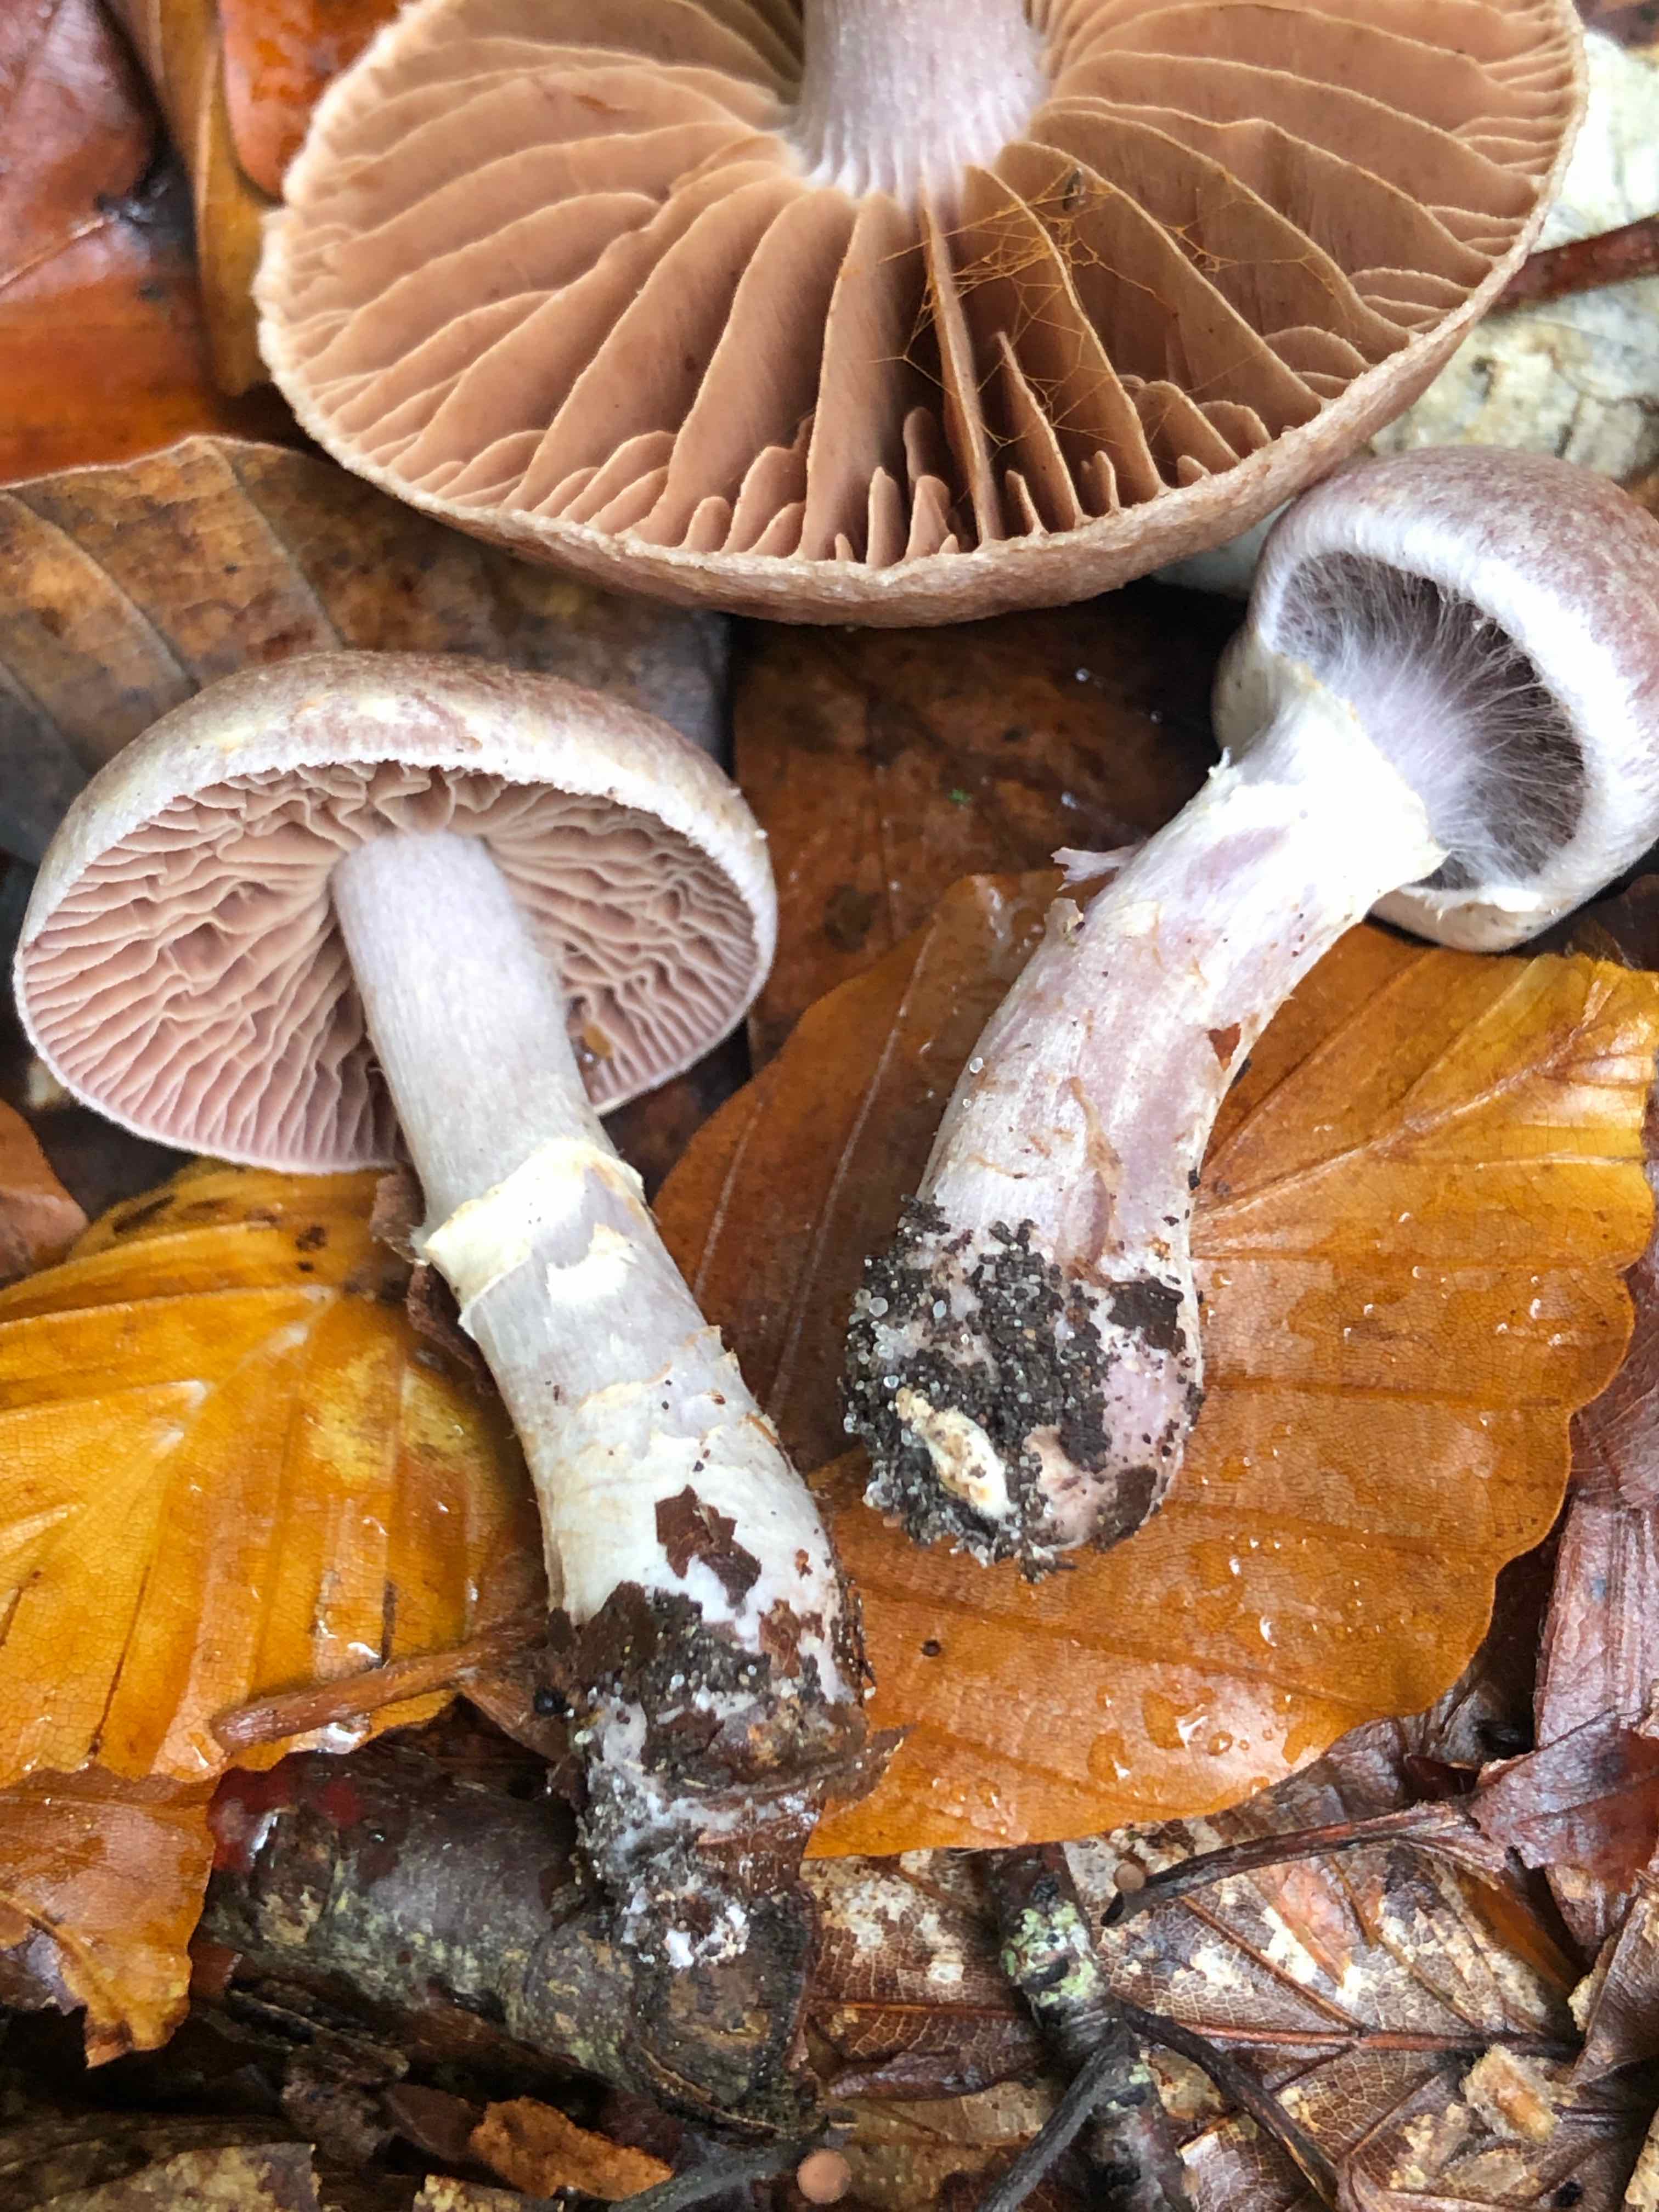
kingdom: Fungi
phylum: Basidiomycota
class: Agaricomycetes
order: Agaricales
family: Cortinariaceae
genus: Cortinarius
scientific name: Cortinarius torvus
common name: champignonagtig slørhat
